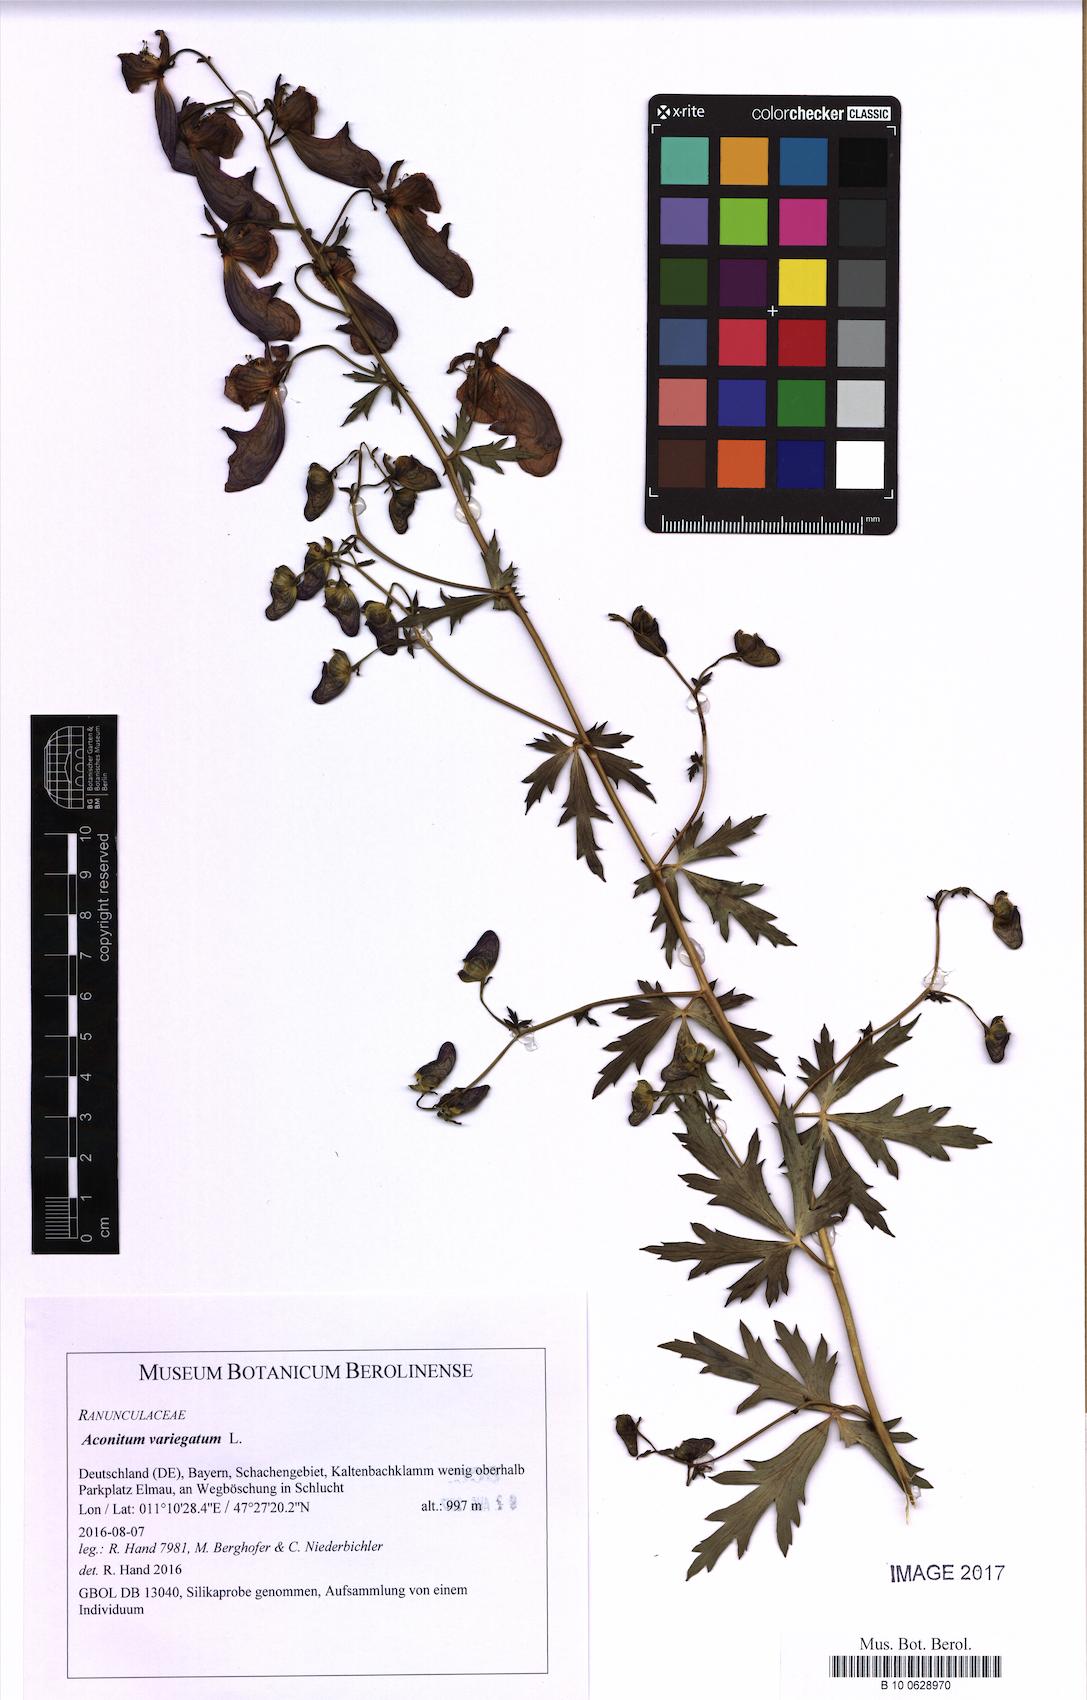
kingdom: Plantae
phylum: Tracheophyta
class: Magnoliopsida
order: Ranunculales
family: Ranunculaceae
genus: Aconitum
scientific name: Aconitum variegatum
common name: Manchurian monkshood
